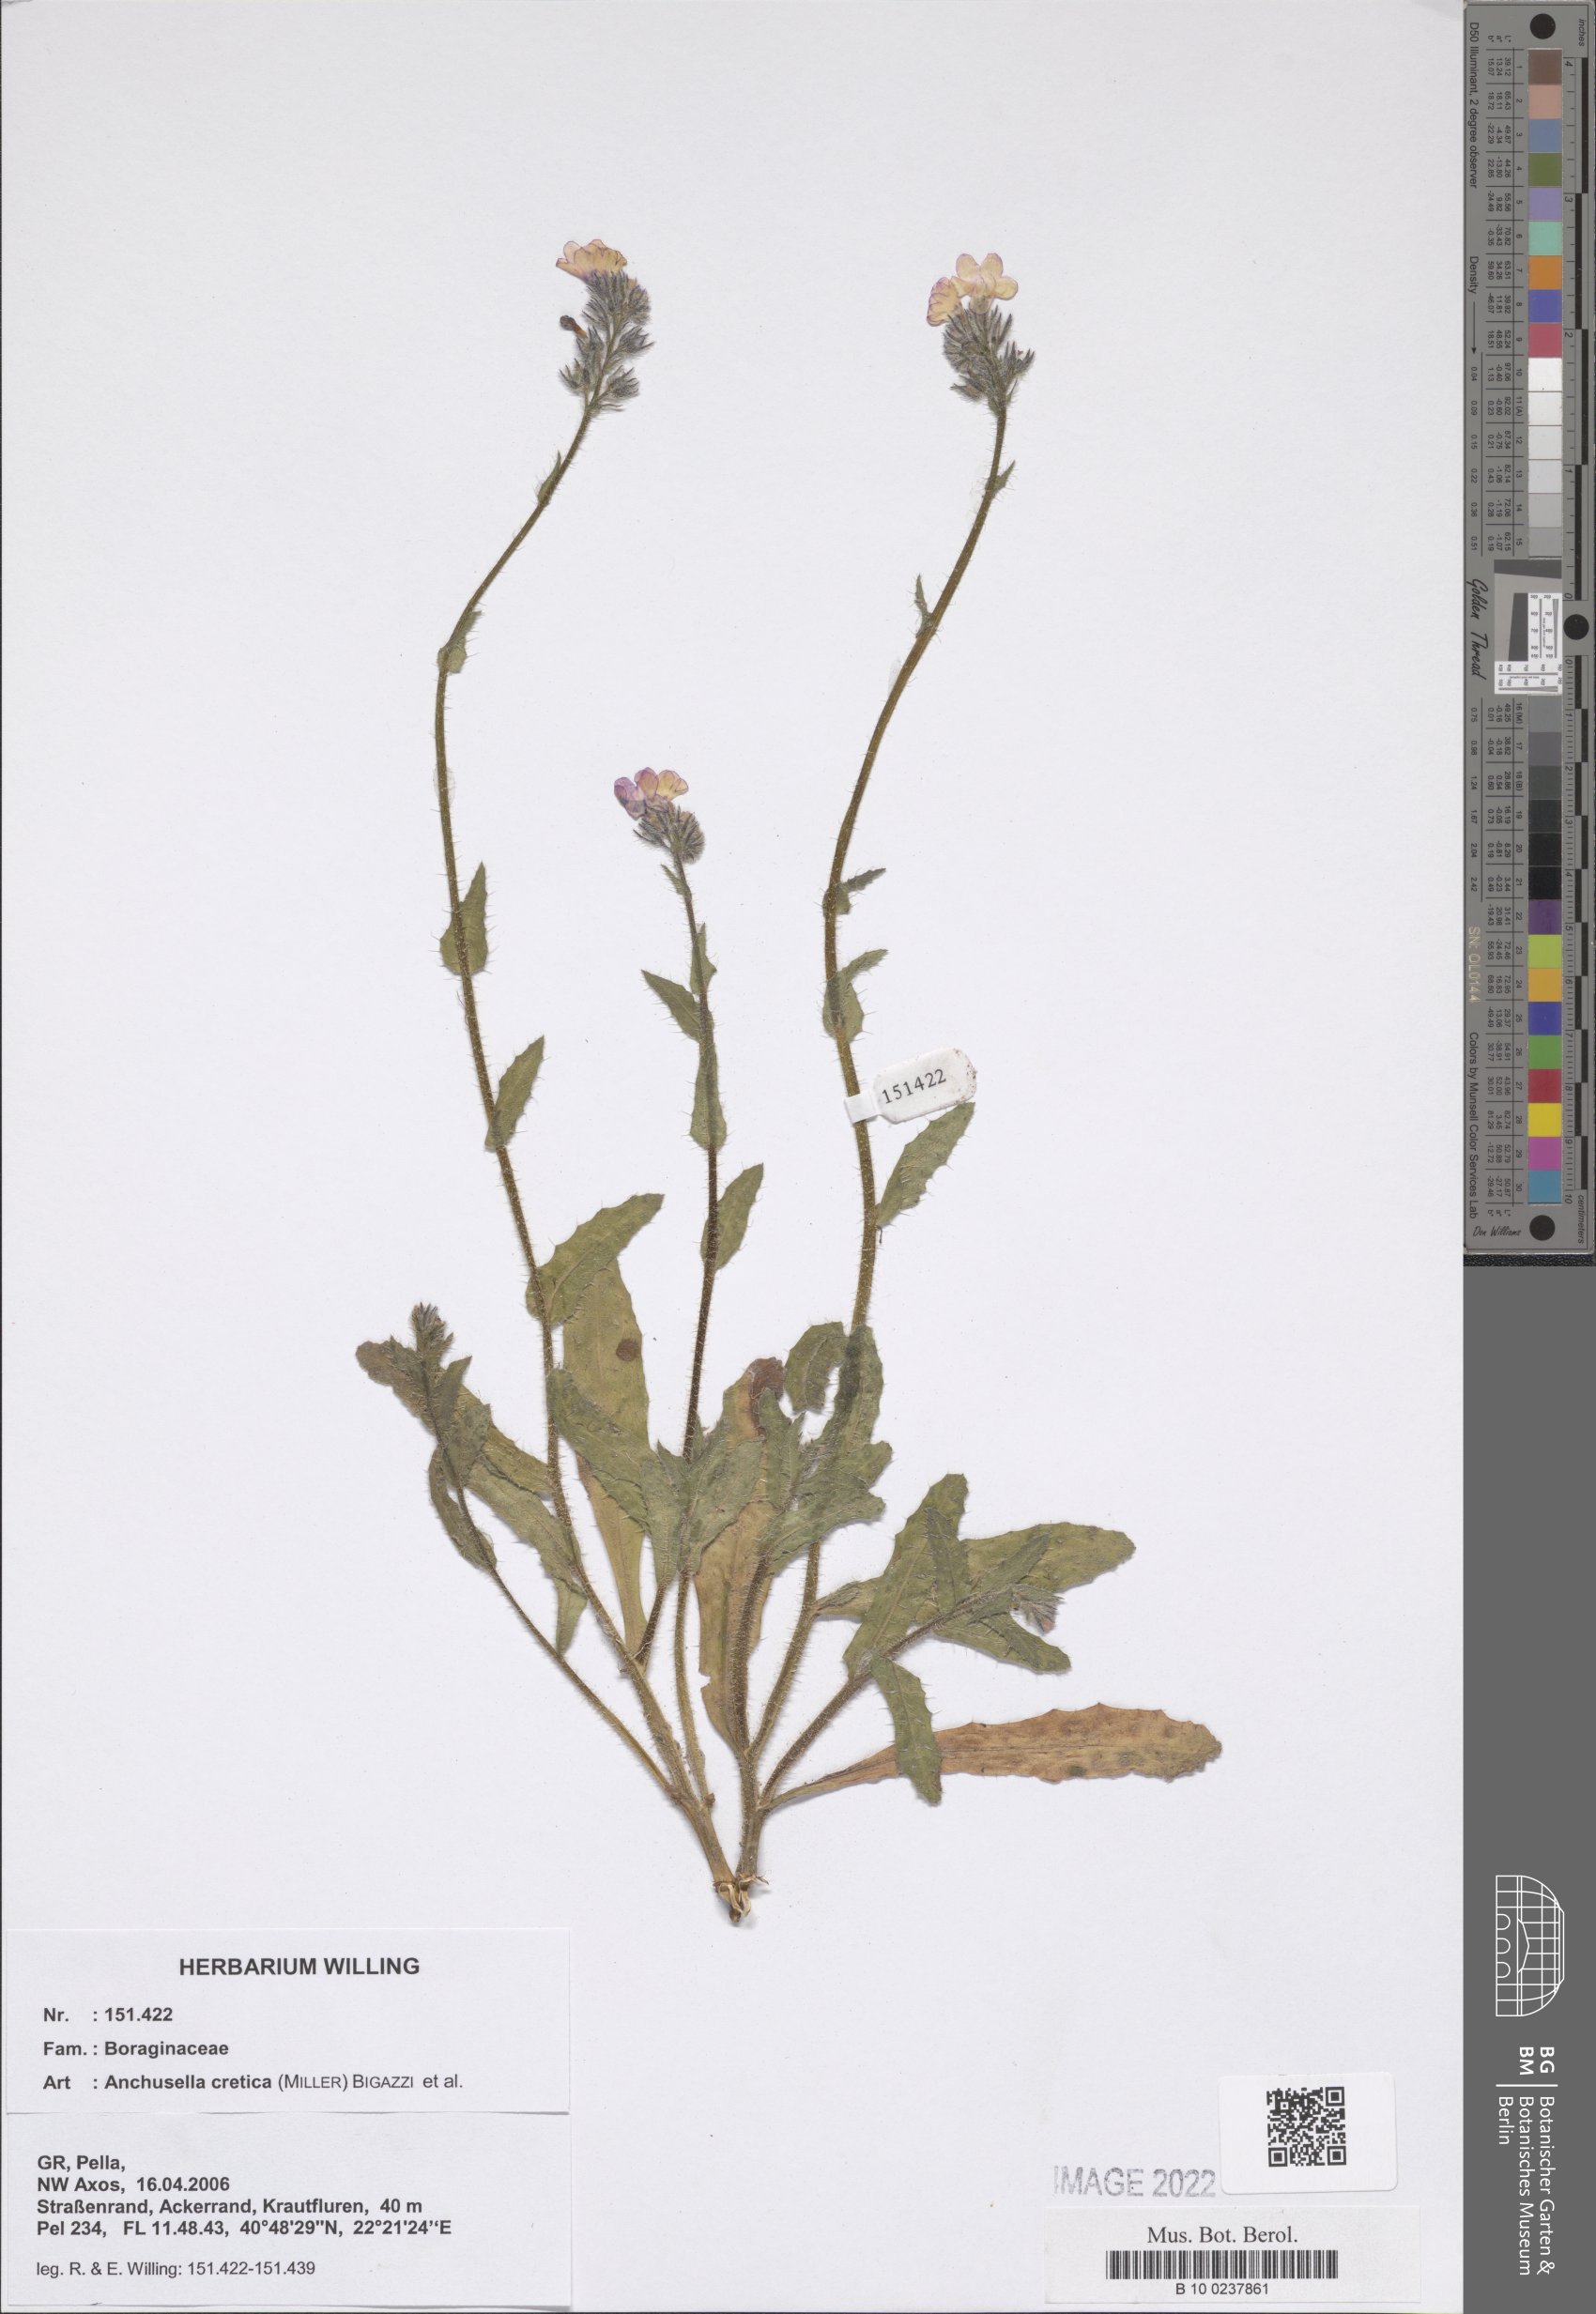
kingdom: Plantae
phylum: Tracheophyta
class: Magnoliopsida
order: Boraginales
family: Boraginaceae
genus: Lycopsis
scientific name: Lycopsis arvensis
